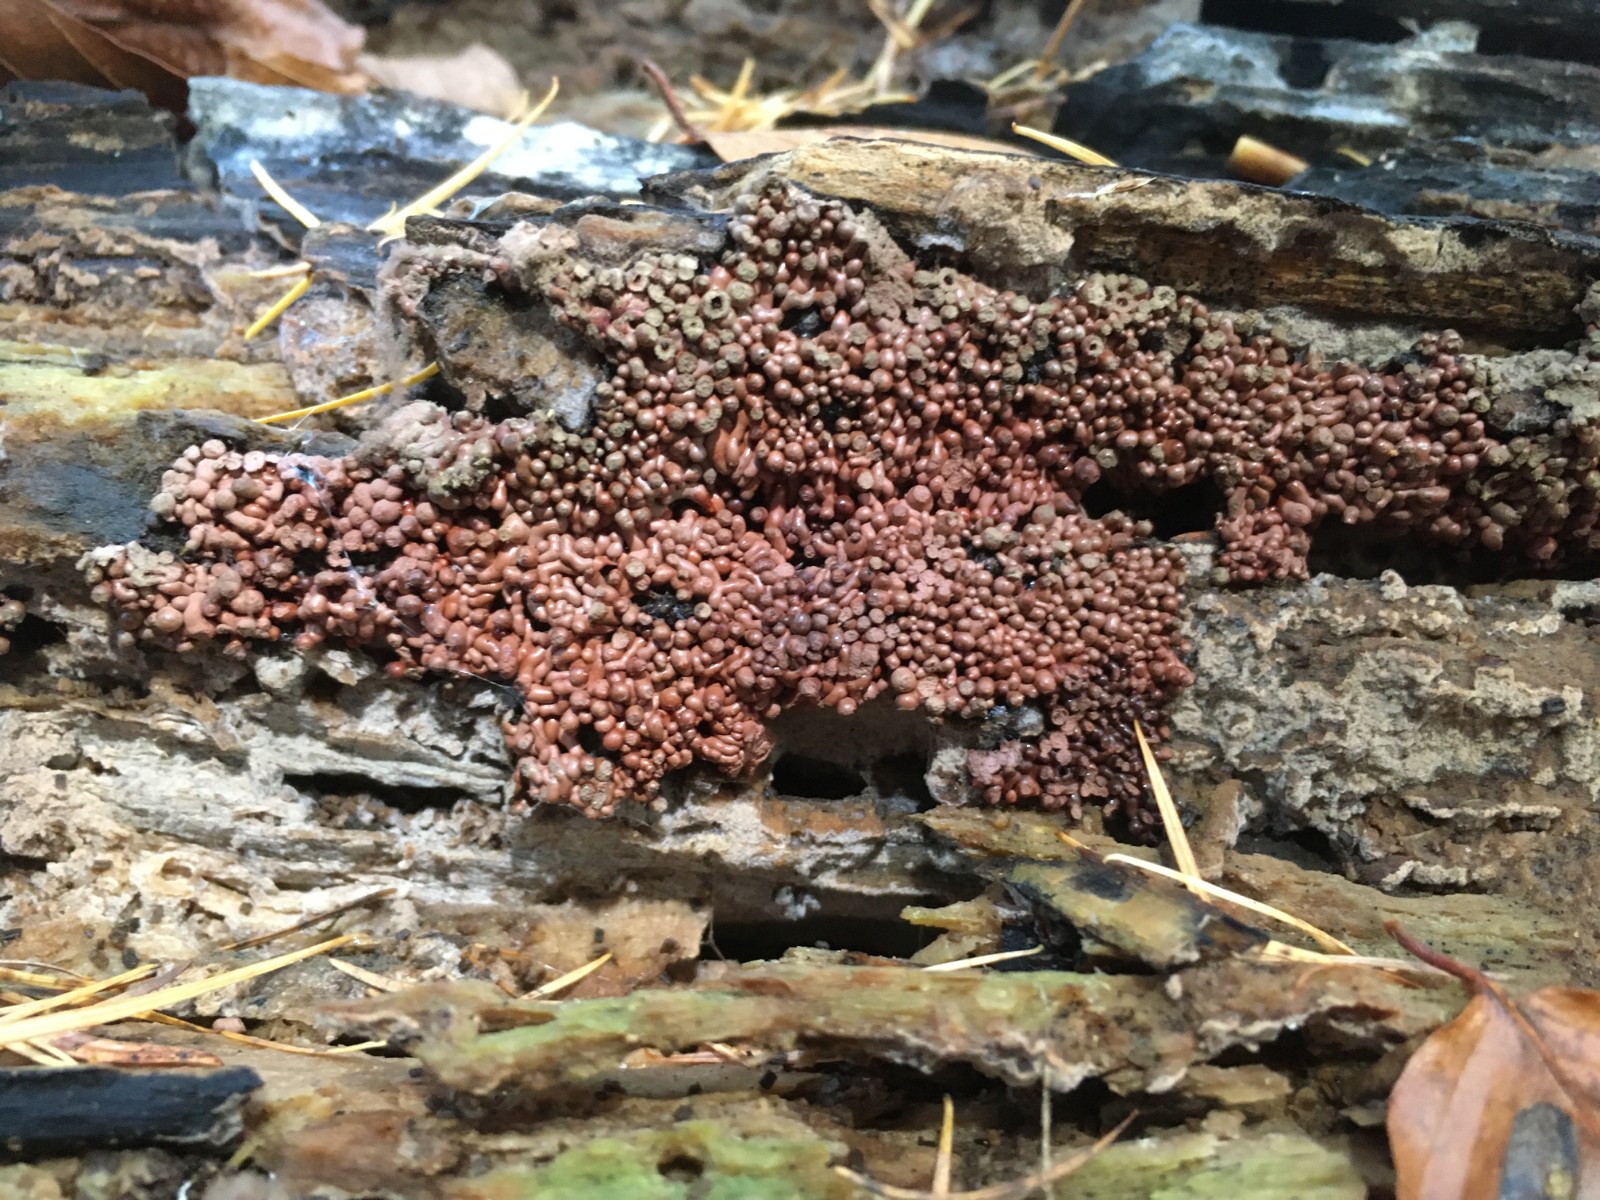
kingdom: Protozoa
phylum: Mycetozoa
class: Myxomycetes
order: Trichiales
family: Arcyriaceae
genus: Arcyria
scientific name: Arcyria stipata
